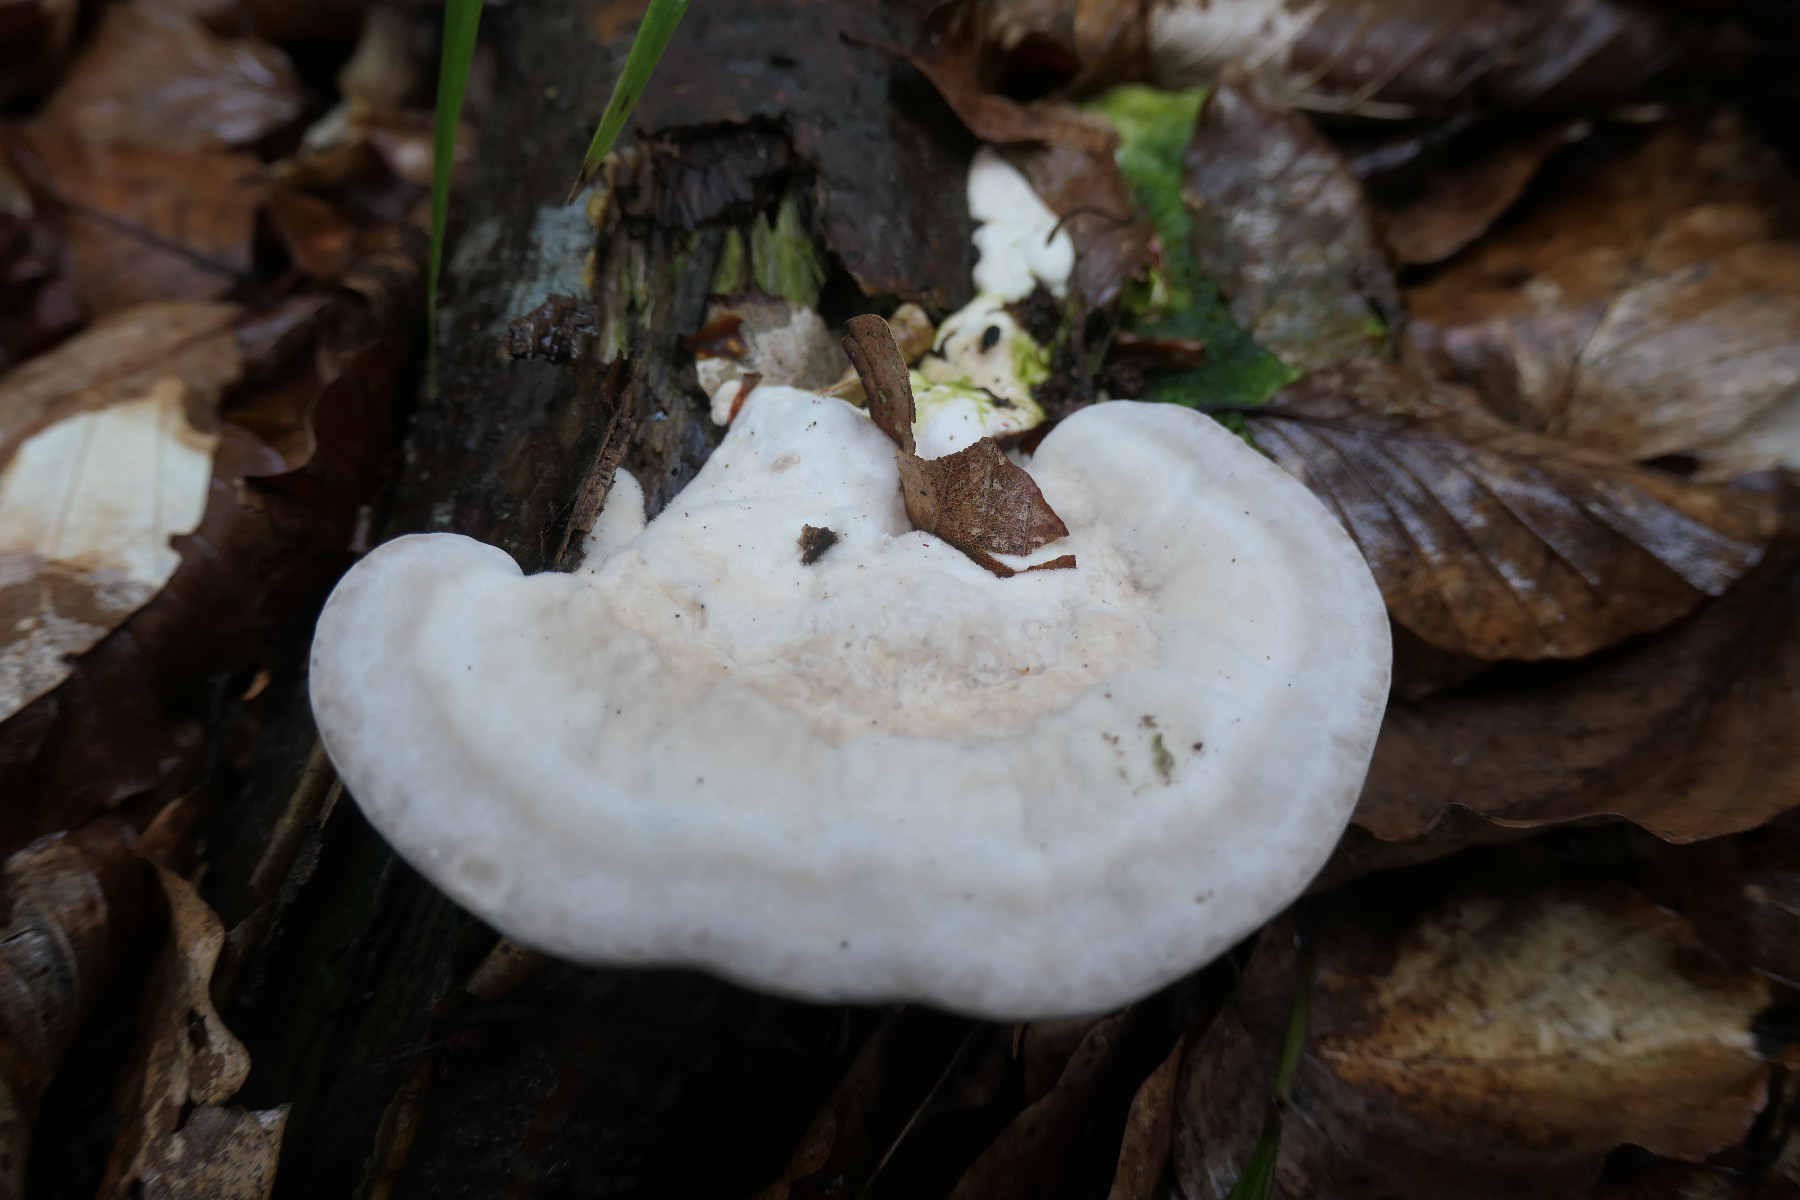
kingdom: Fungi
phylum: Basidiomycota
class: Agaricomycetes
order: Polyporales
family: Polyporaceae
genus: Trametes
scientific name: Trametes gibbosa
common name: puklet læderporesvamp
